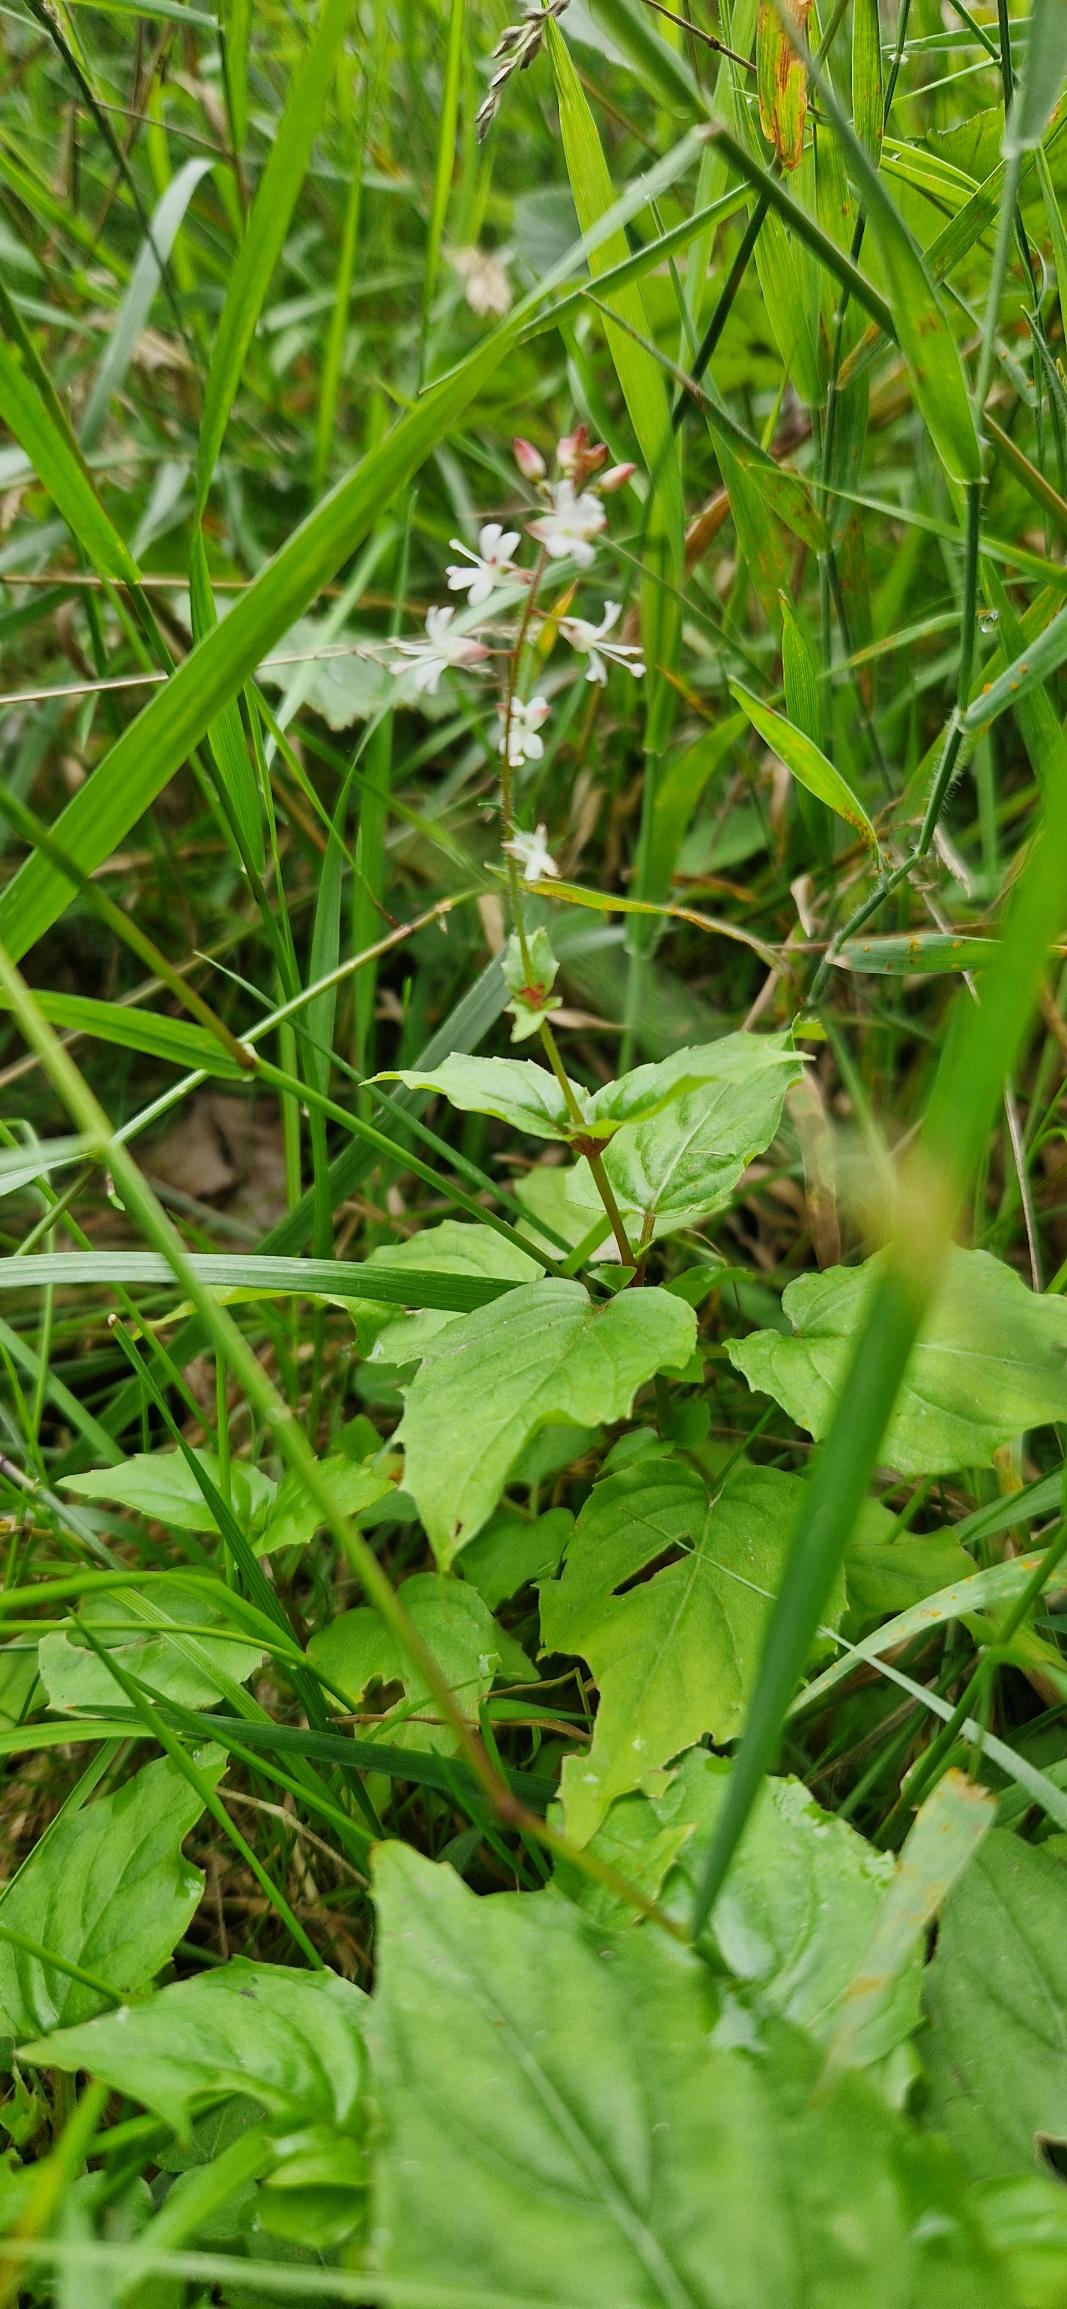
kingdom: Plantae
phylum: Tracheophyta
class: Magnoliopsida
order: Myrtales
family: Onagraceae
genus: Circaea
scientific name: Circaea intermedia
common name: Spidsbladet steffensurt
